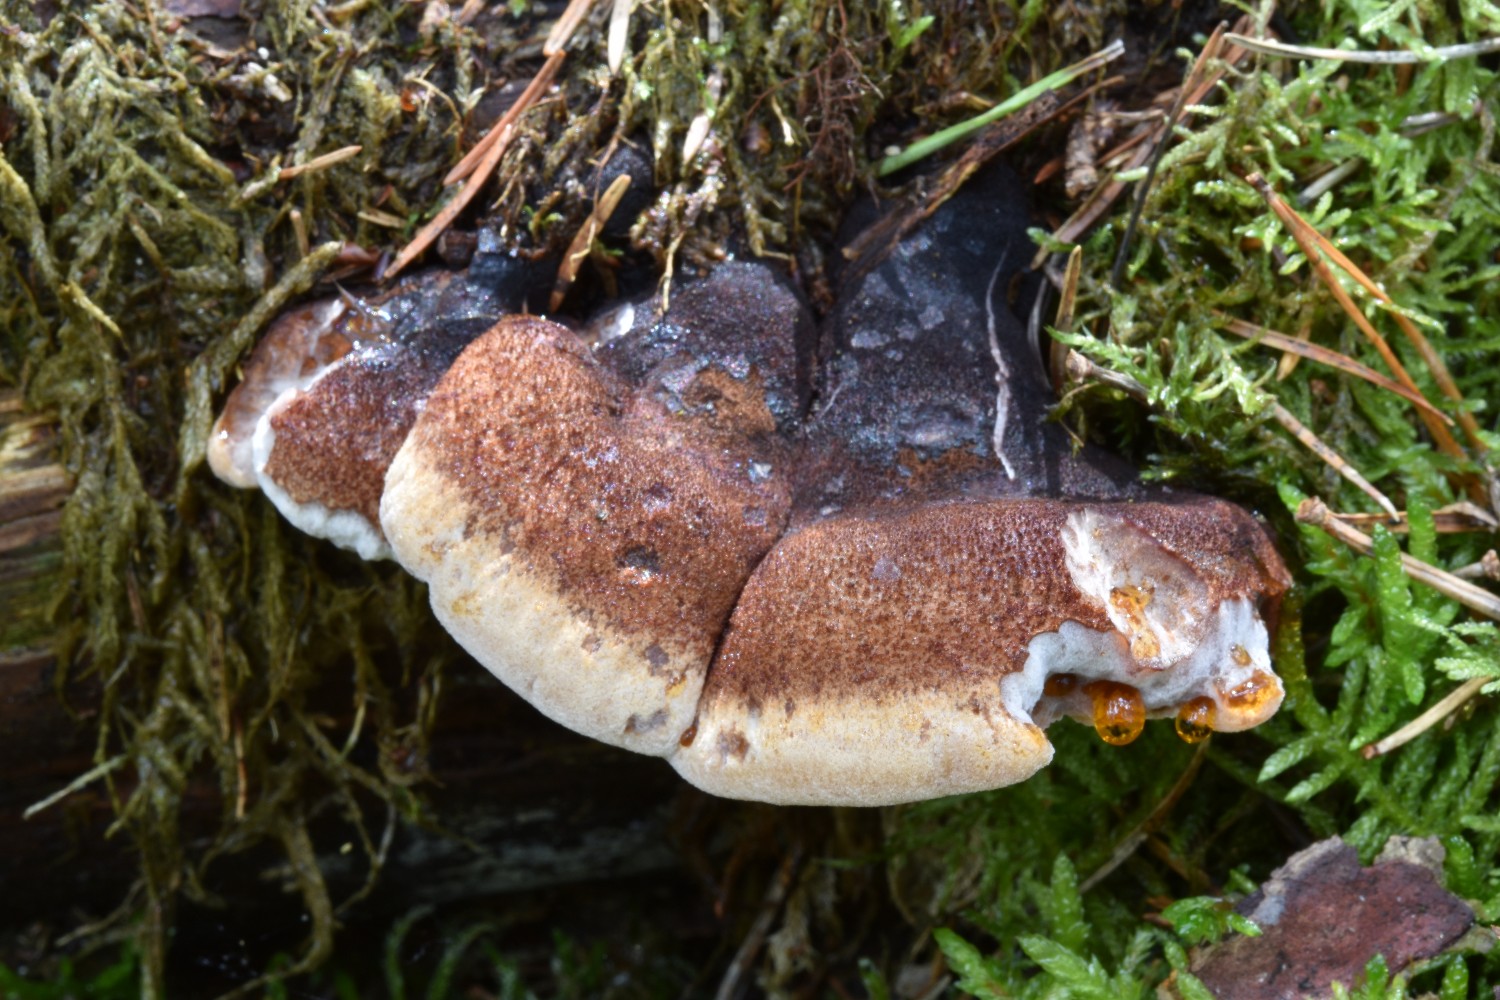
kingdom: Fungi
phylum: Basidiomycota
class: Agaricomycetes
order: Polyporales
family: Ischnodermataceae
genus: Ischnoderma
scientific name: Ischnoderma benzoinum
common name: gran-tjæreporesvamp
